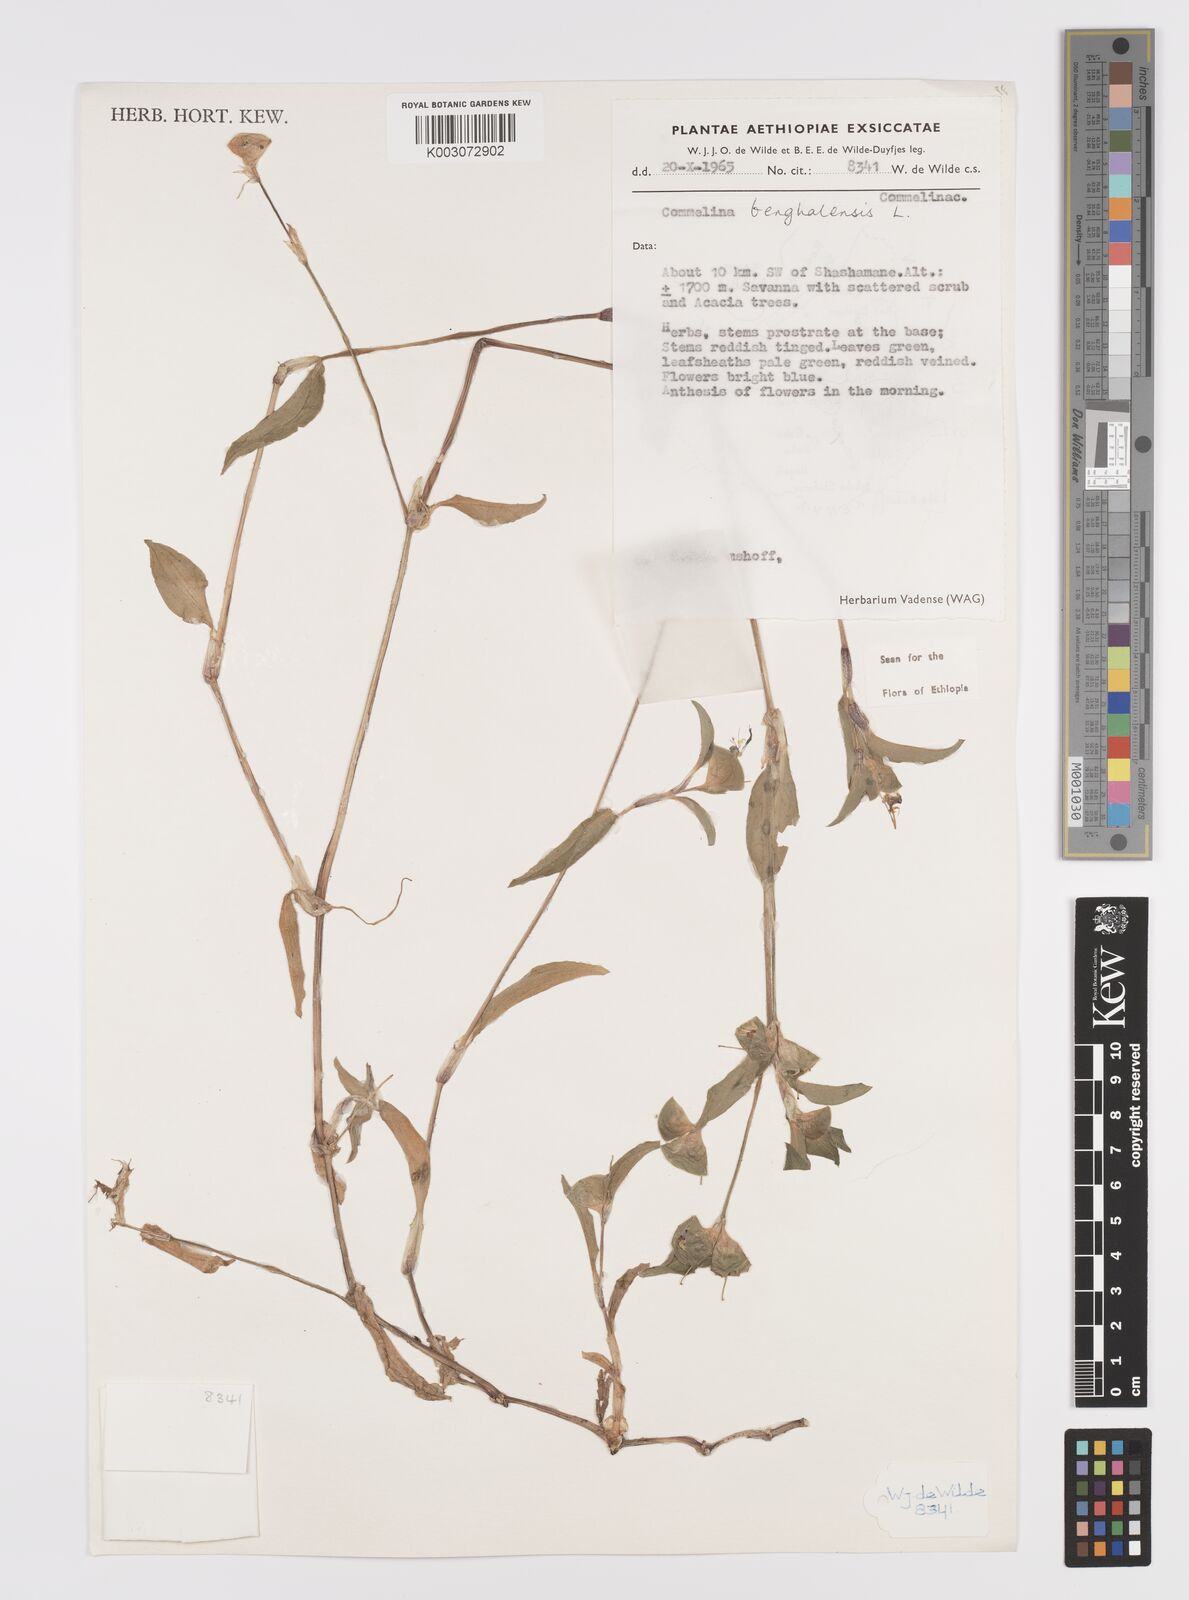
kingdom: Plantae
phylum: Tracheophyta
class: Liliopsida
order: Commelinales
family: Commelinaceae
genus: Commelina
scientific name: Commelina benghalensis
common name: Jio
